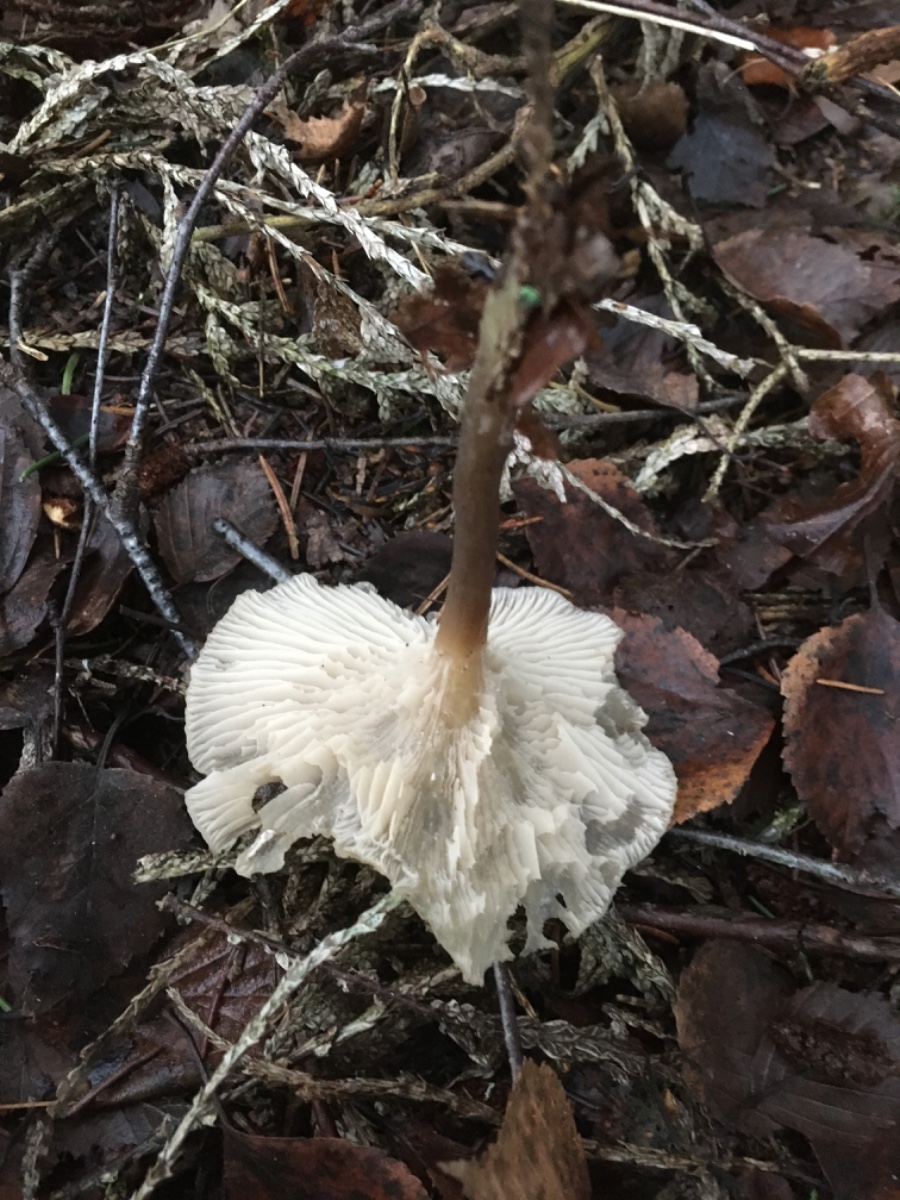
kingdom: Fungi
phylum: Basidiomycota
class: Agaricomycetes
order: Agaricales
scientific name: Agaricales
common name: champignonordenen
